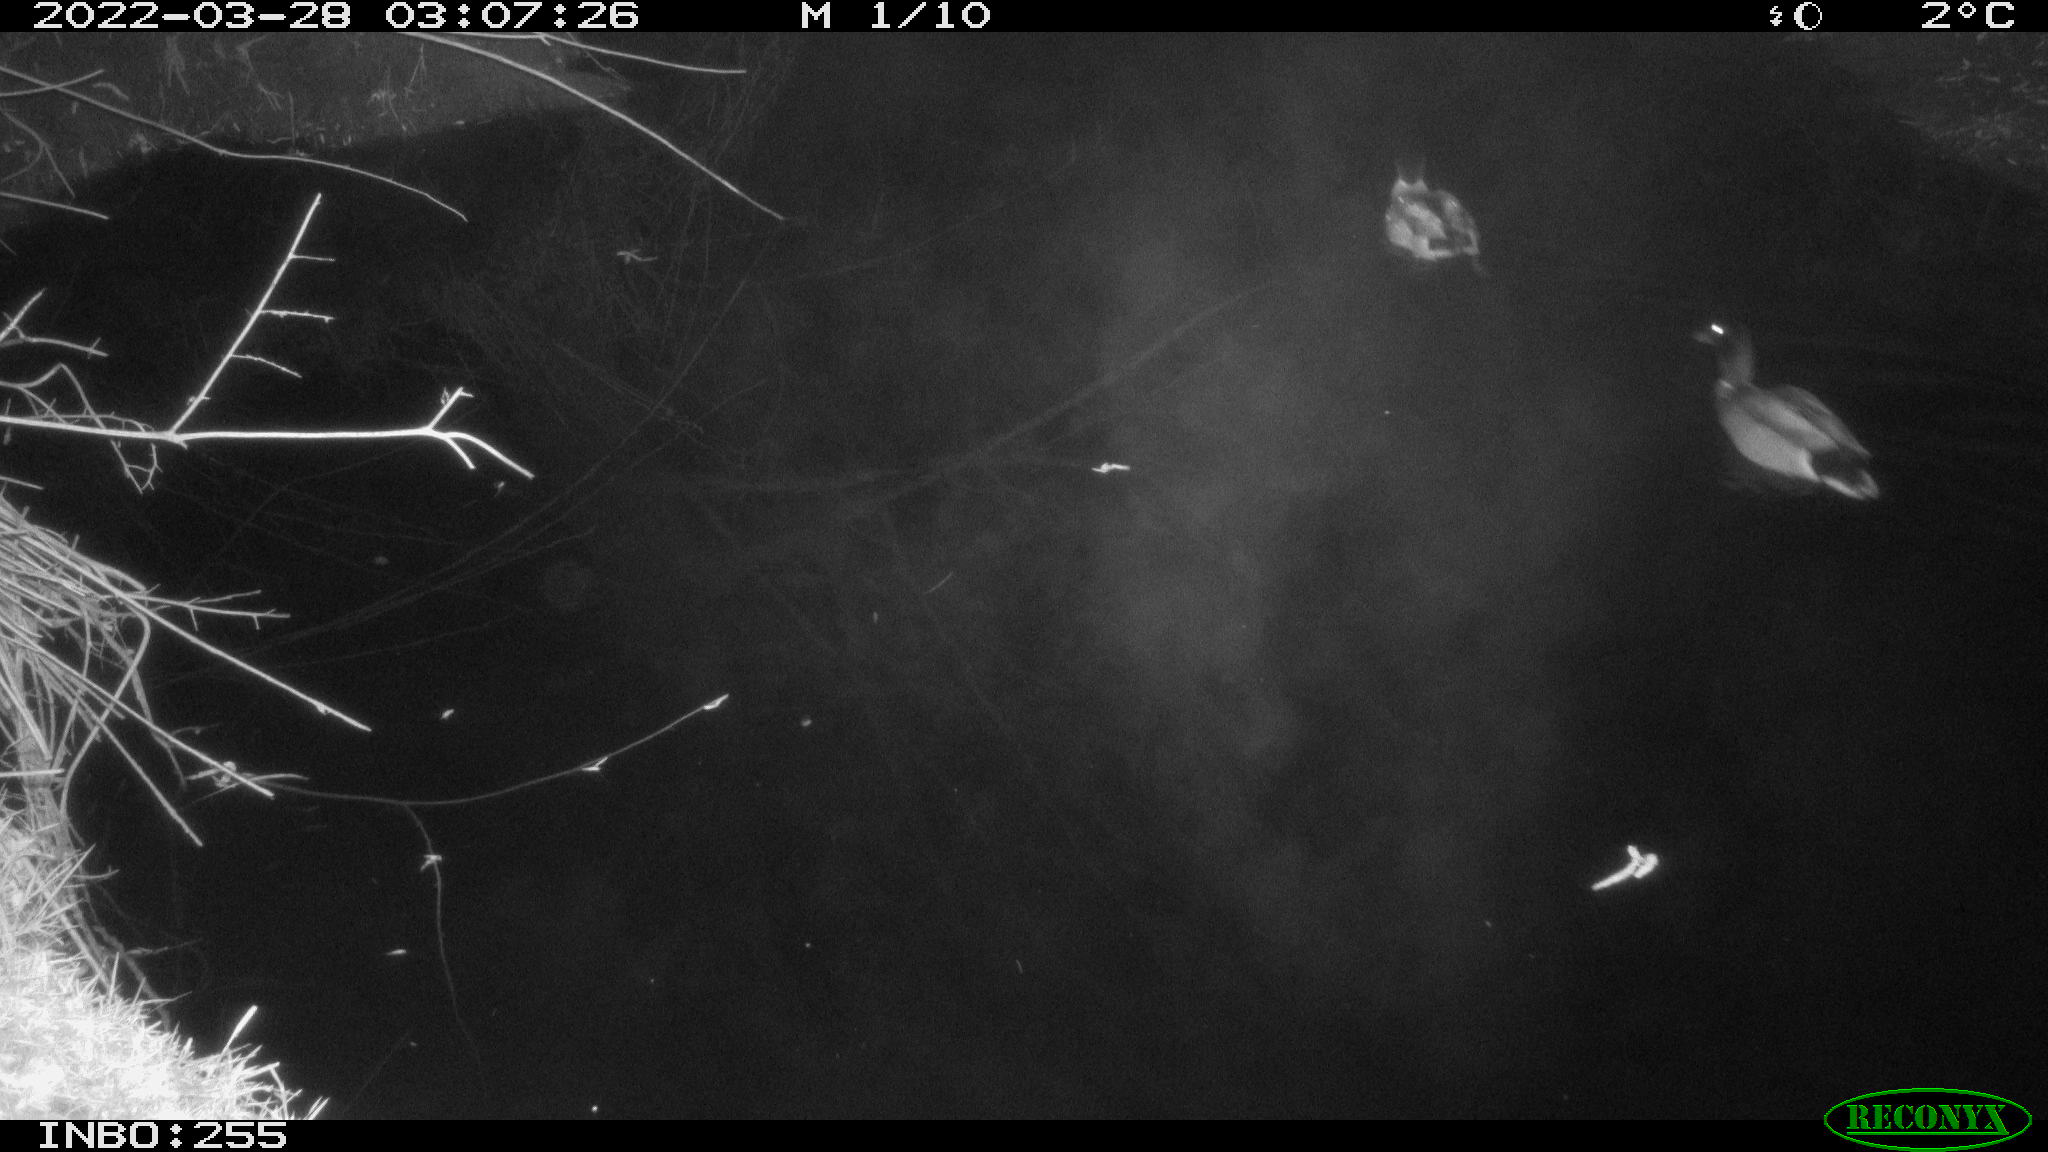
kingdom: Animalia
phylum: Chordata
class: Aves
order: Anseriformes
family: Anatidae
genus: Anas
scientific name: Anas platyrhynchos
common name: Mallard
